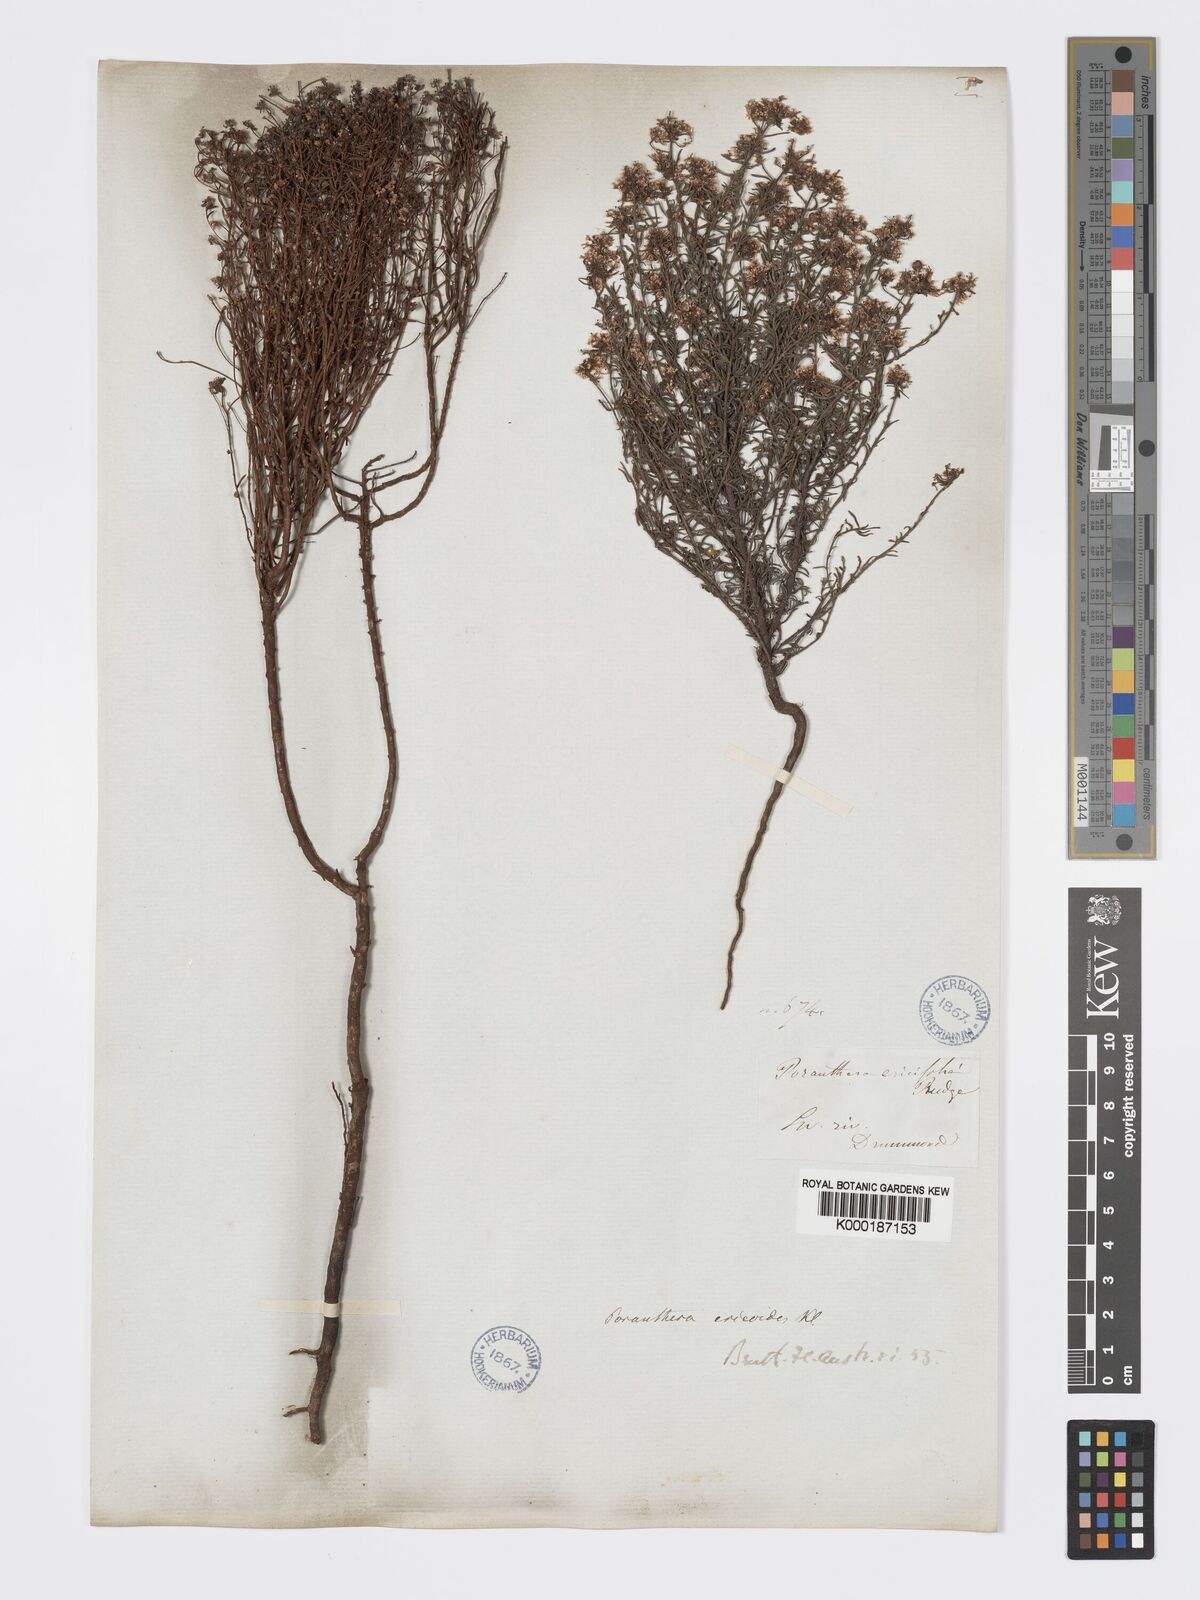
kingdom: Plantae
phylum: Tracheophyta
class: Magnoliopsida
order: Malpighiales
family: Phyllanthaceae
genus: Poranthera
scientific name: Poranthera ericoides
